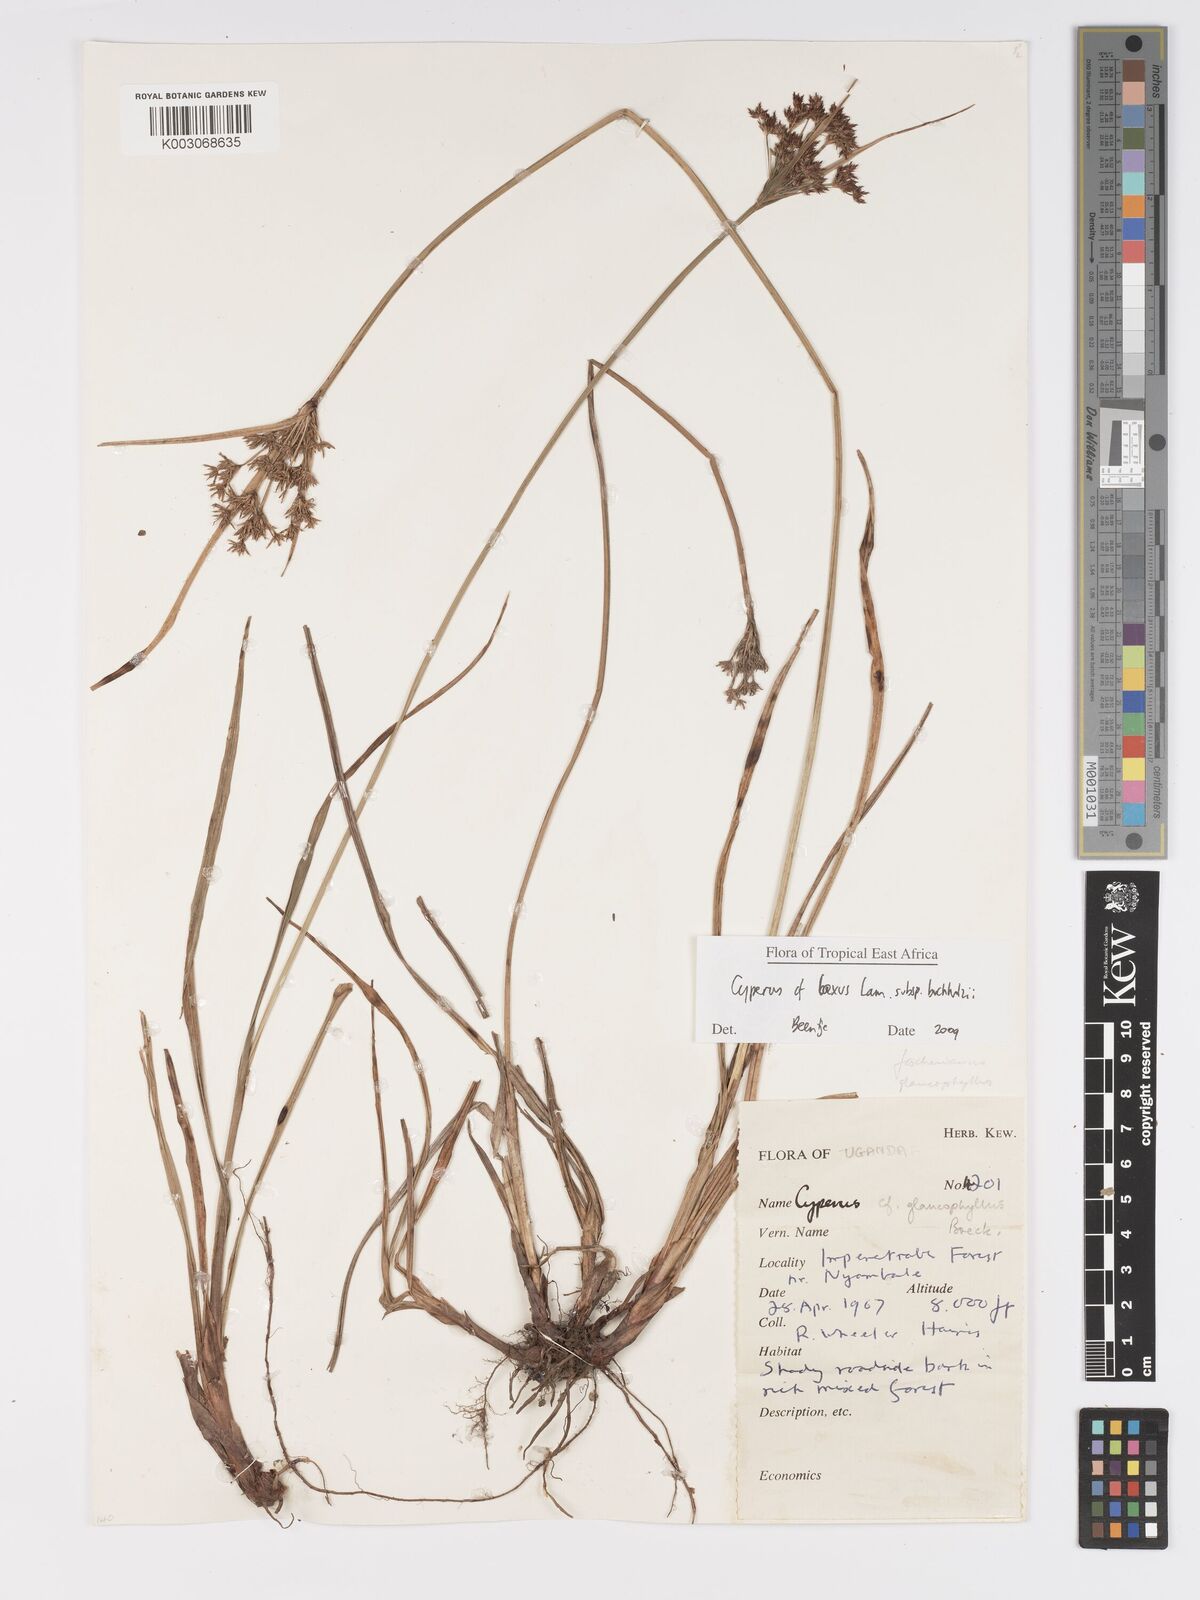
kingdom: Plantae
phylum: Tracheophyta
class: Liliopsida
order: Poales
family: Cyperaceae
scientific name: Cyperaceae
